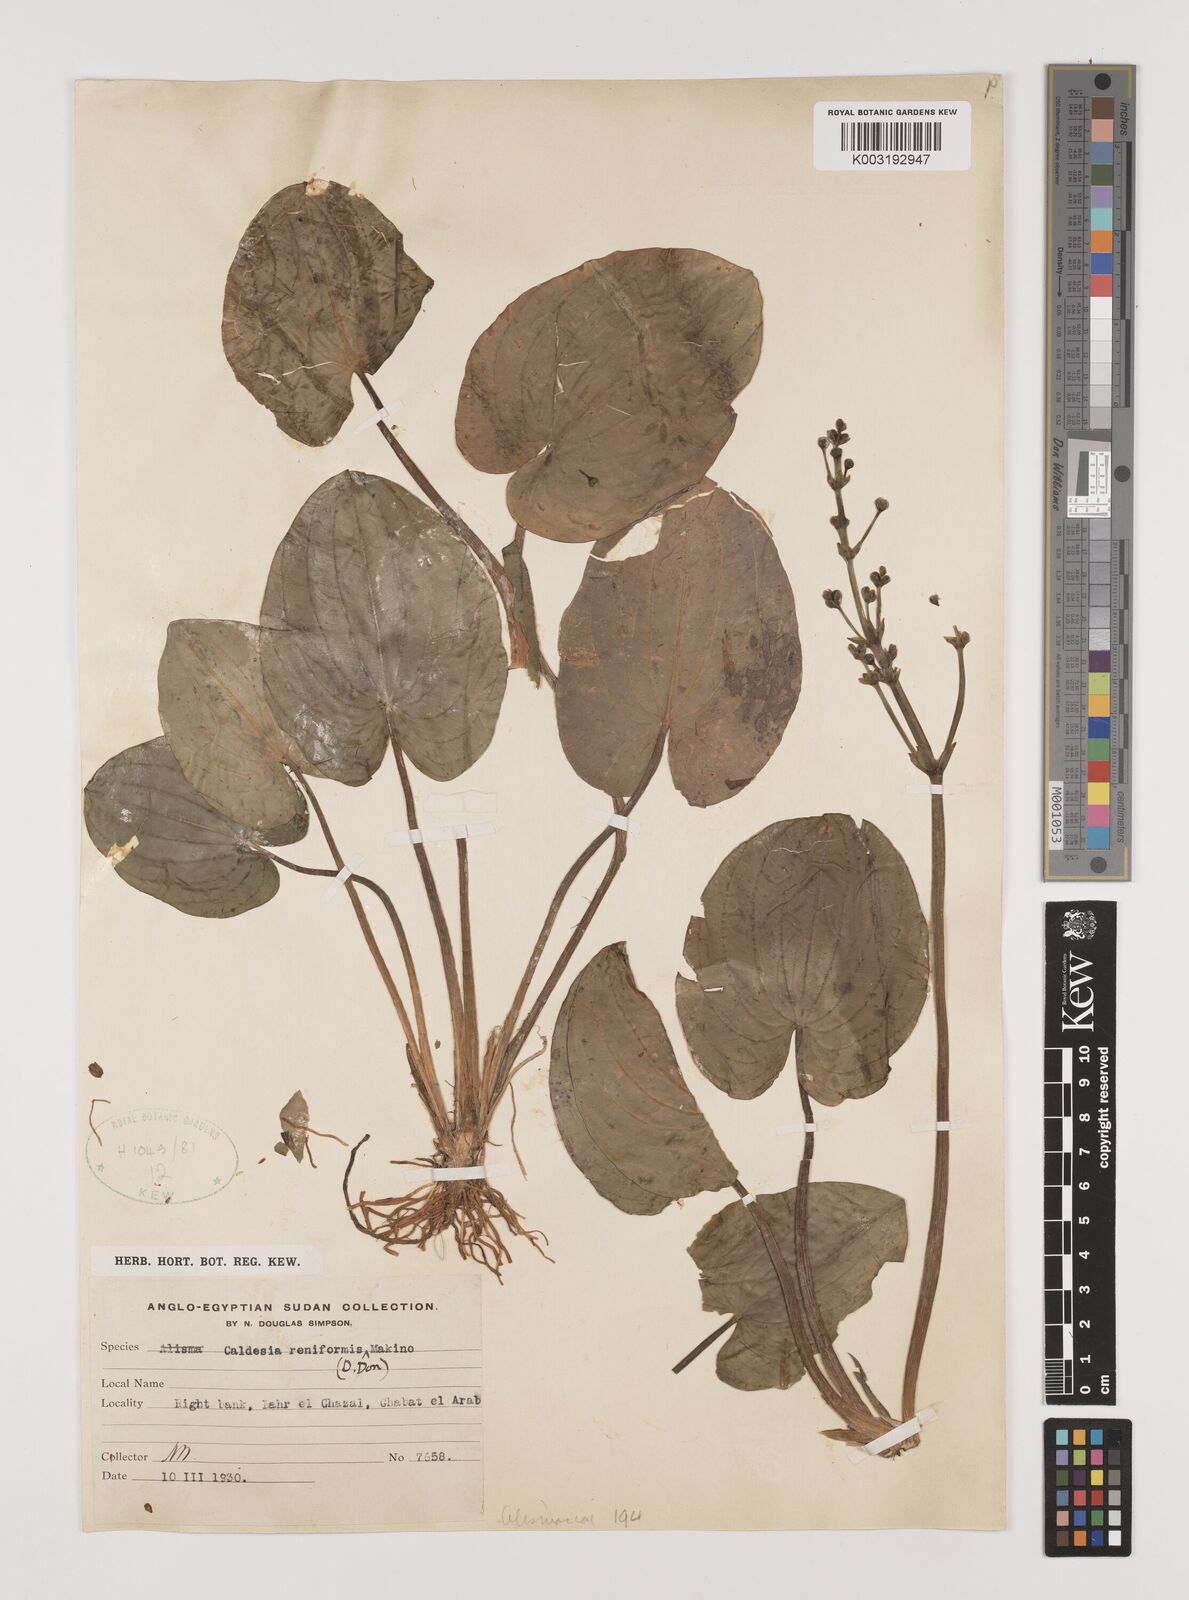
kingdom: Plantae
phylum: Tracheophyta
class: Liliopsida
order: Alismatales
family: Alismataceae
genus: Caldesia
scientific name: Caldesia parnassifolia
